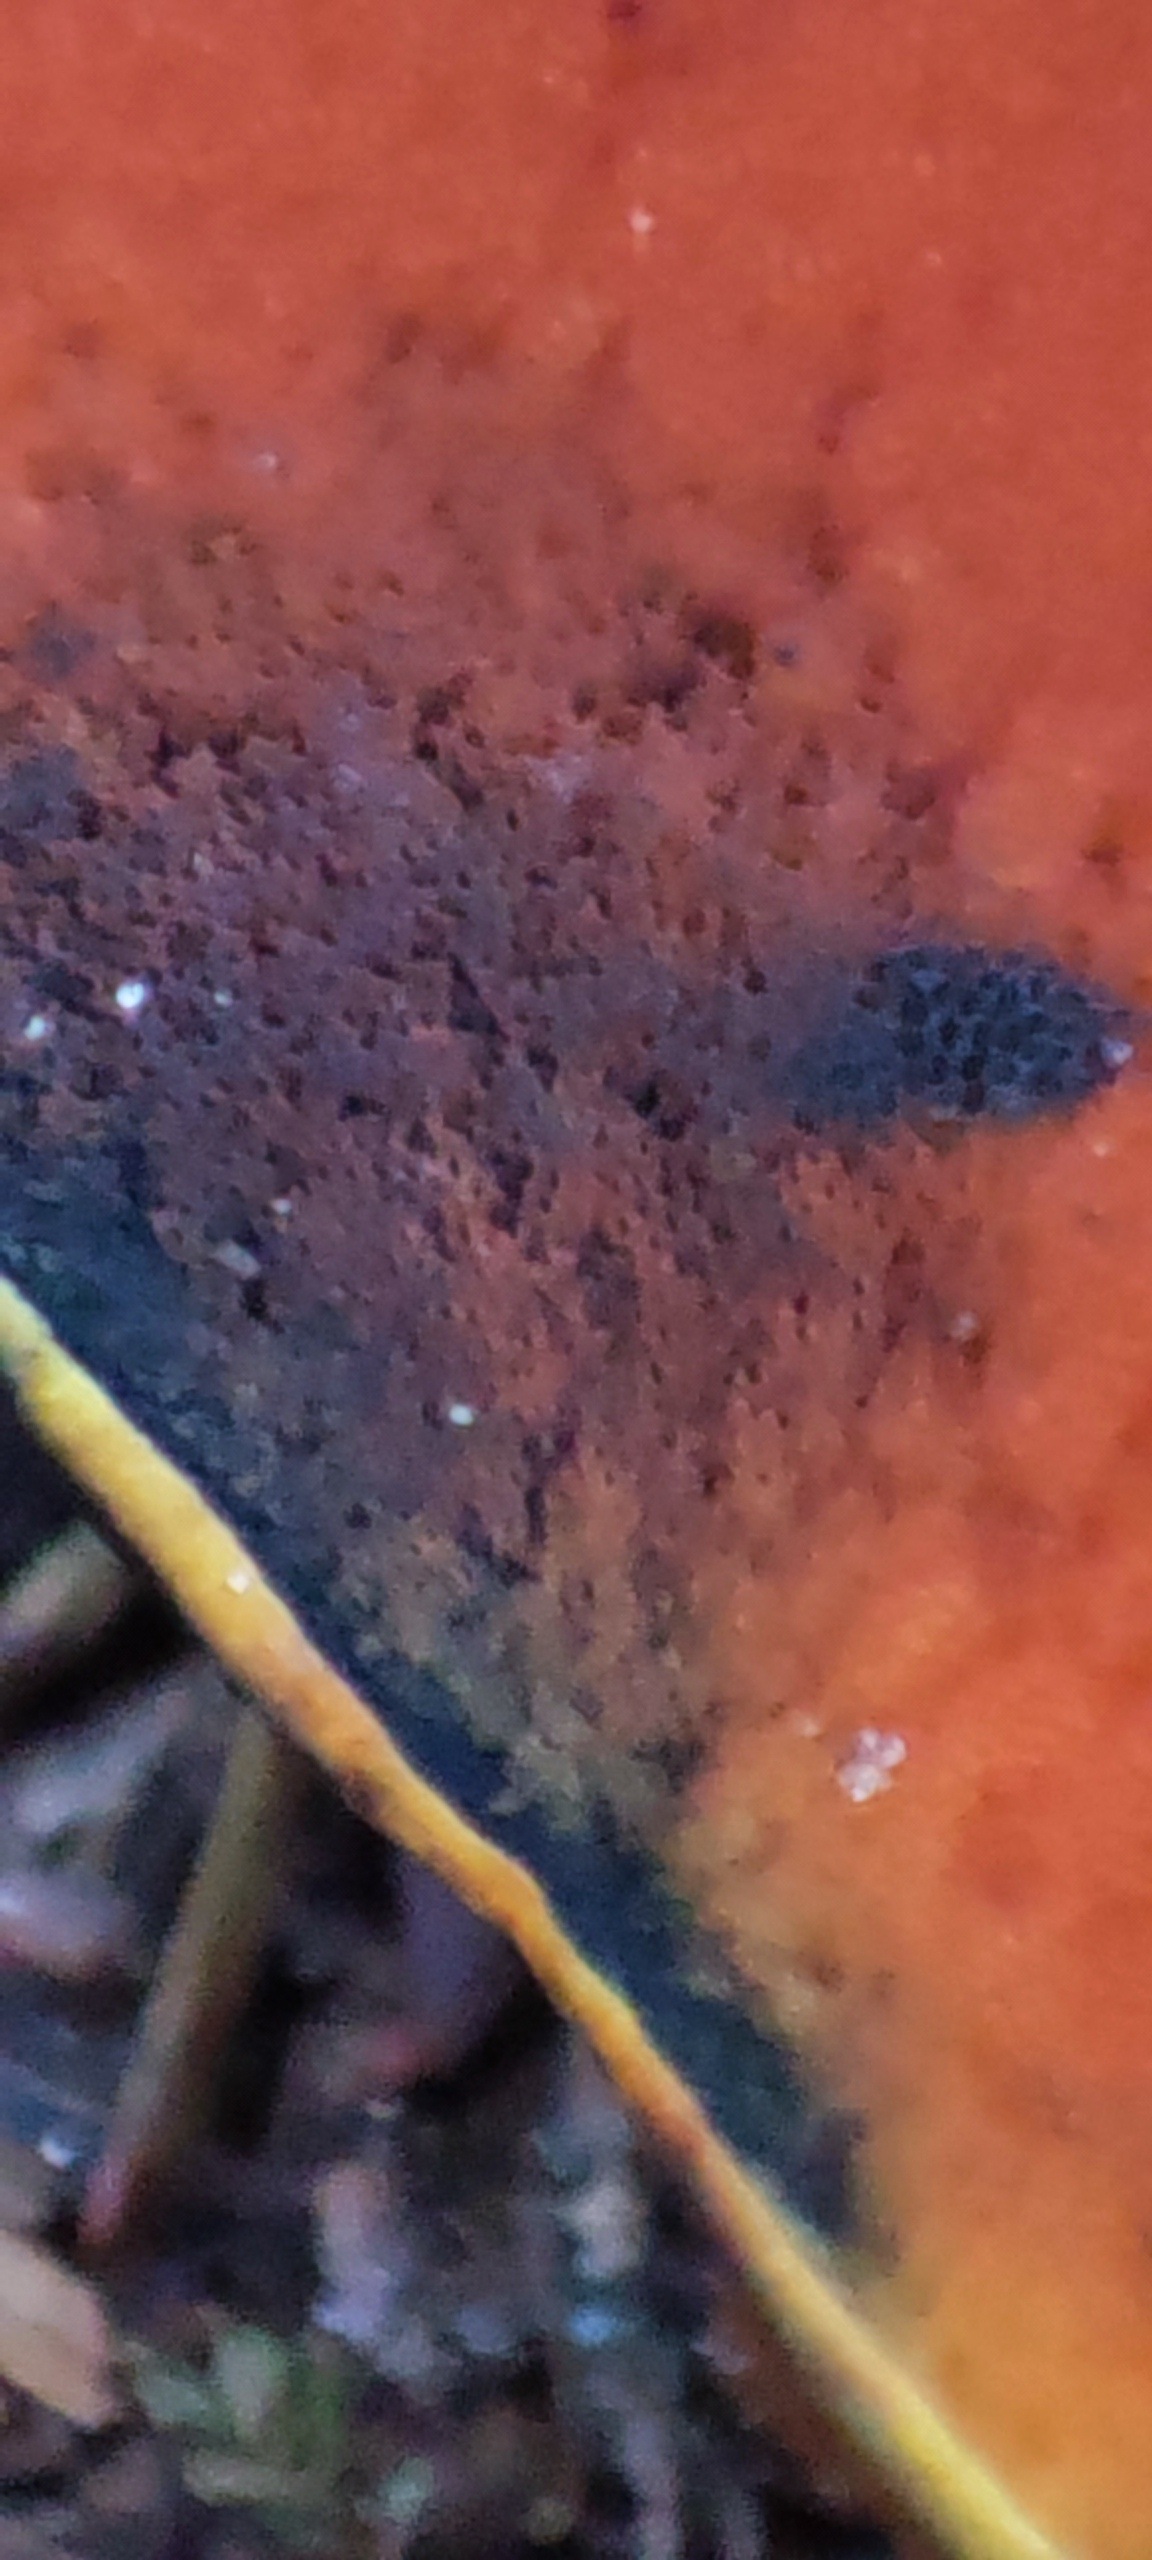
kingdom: Fungi
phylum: Basidiomycota
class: Agaricomycetes
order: Boletales
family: Boletaceae
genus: Neoboletus
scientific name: Neoboletus
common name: indigorørhat
